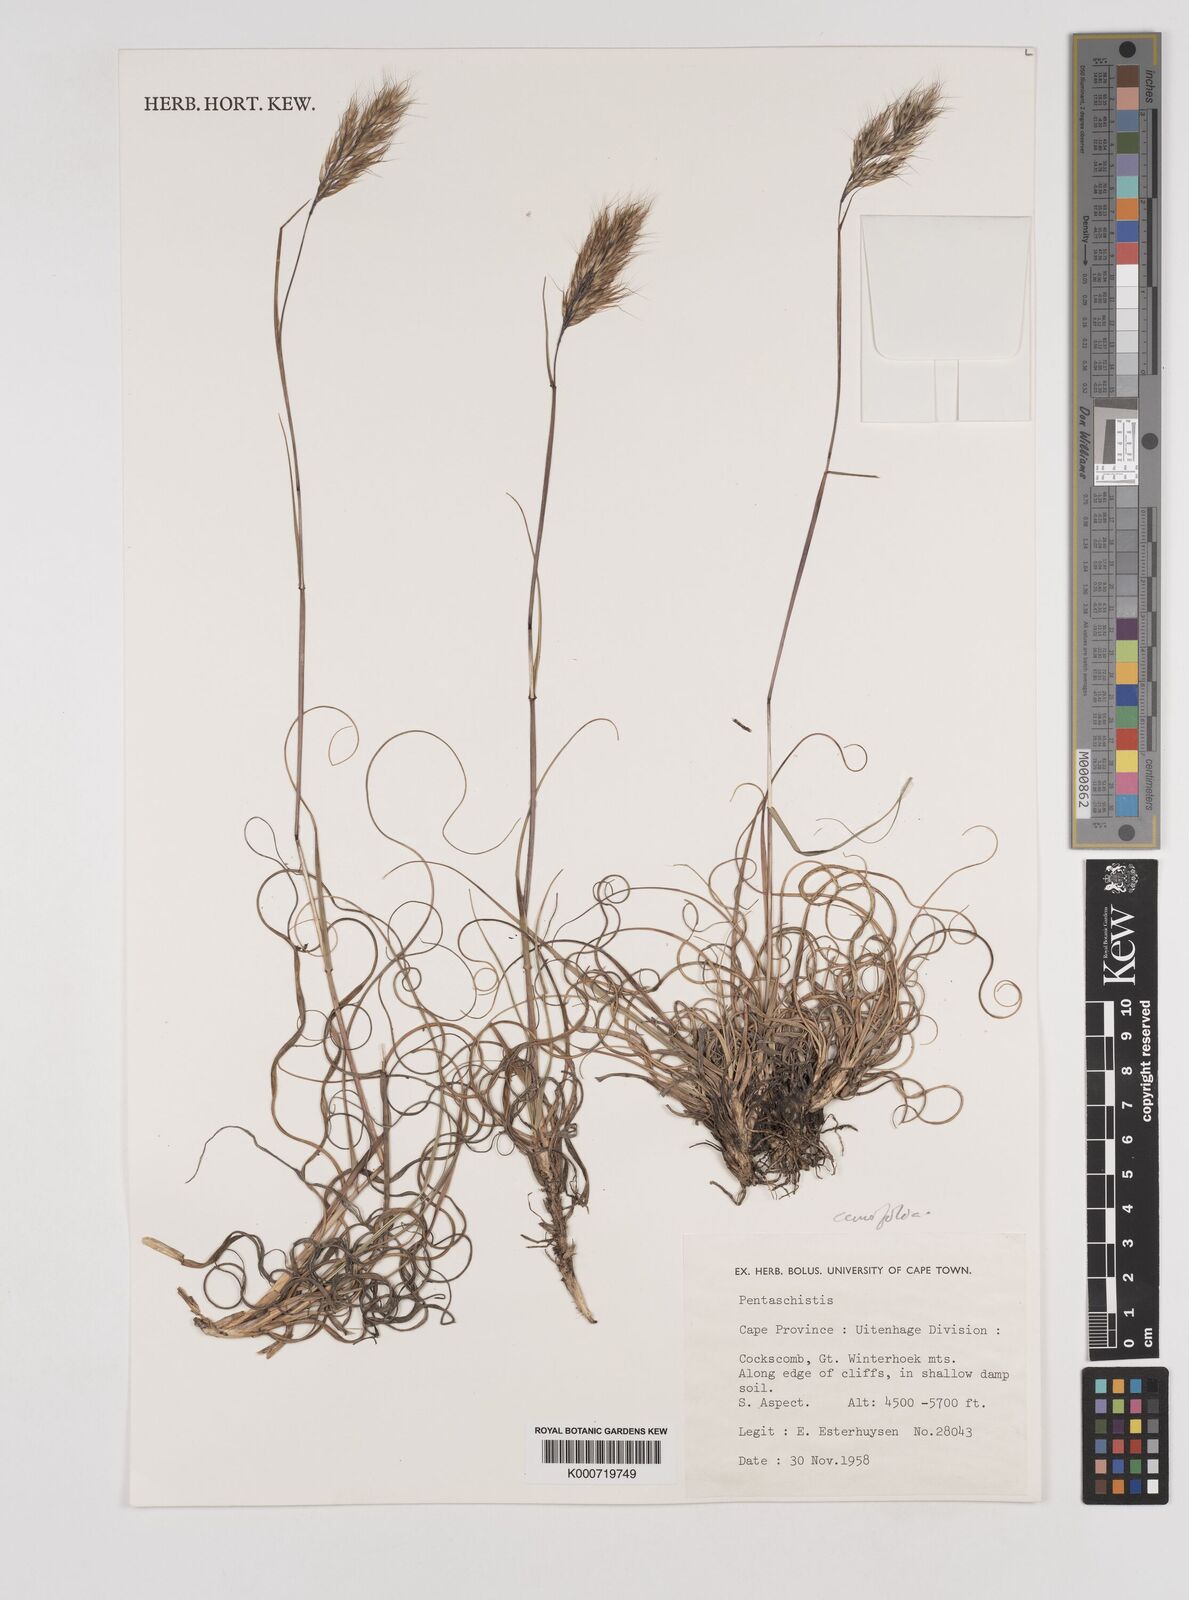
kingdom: Plantae
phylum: Tracheophyta
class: Liliopsida
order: Poales
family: Poaceae
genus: Pentameris
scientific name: Pentameris curvifolia
